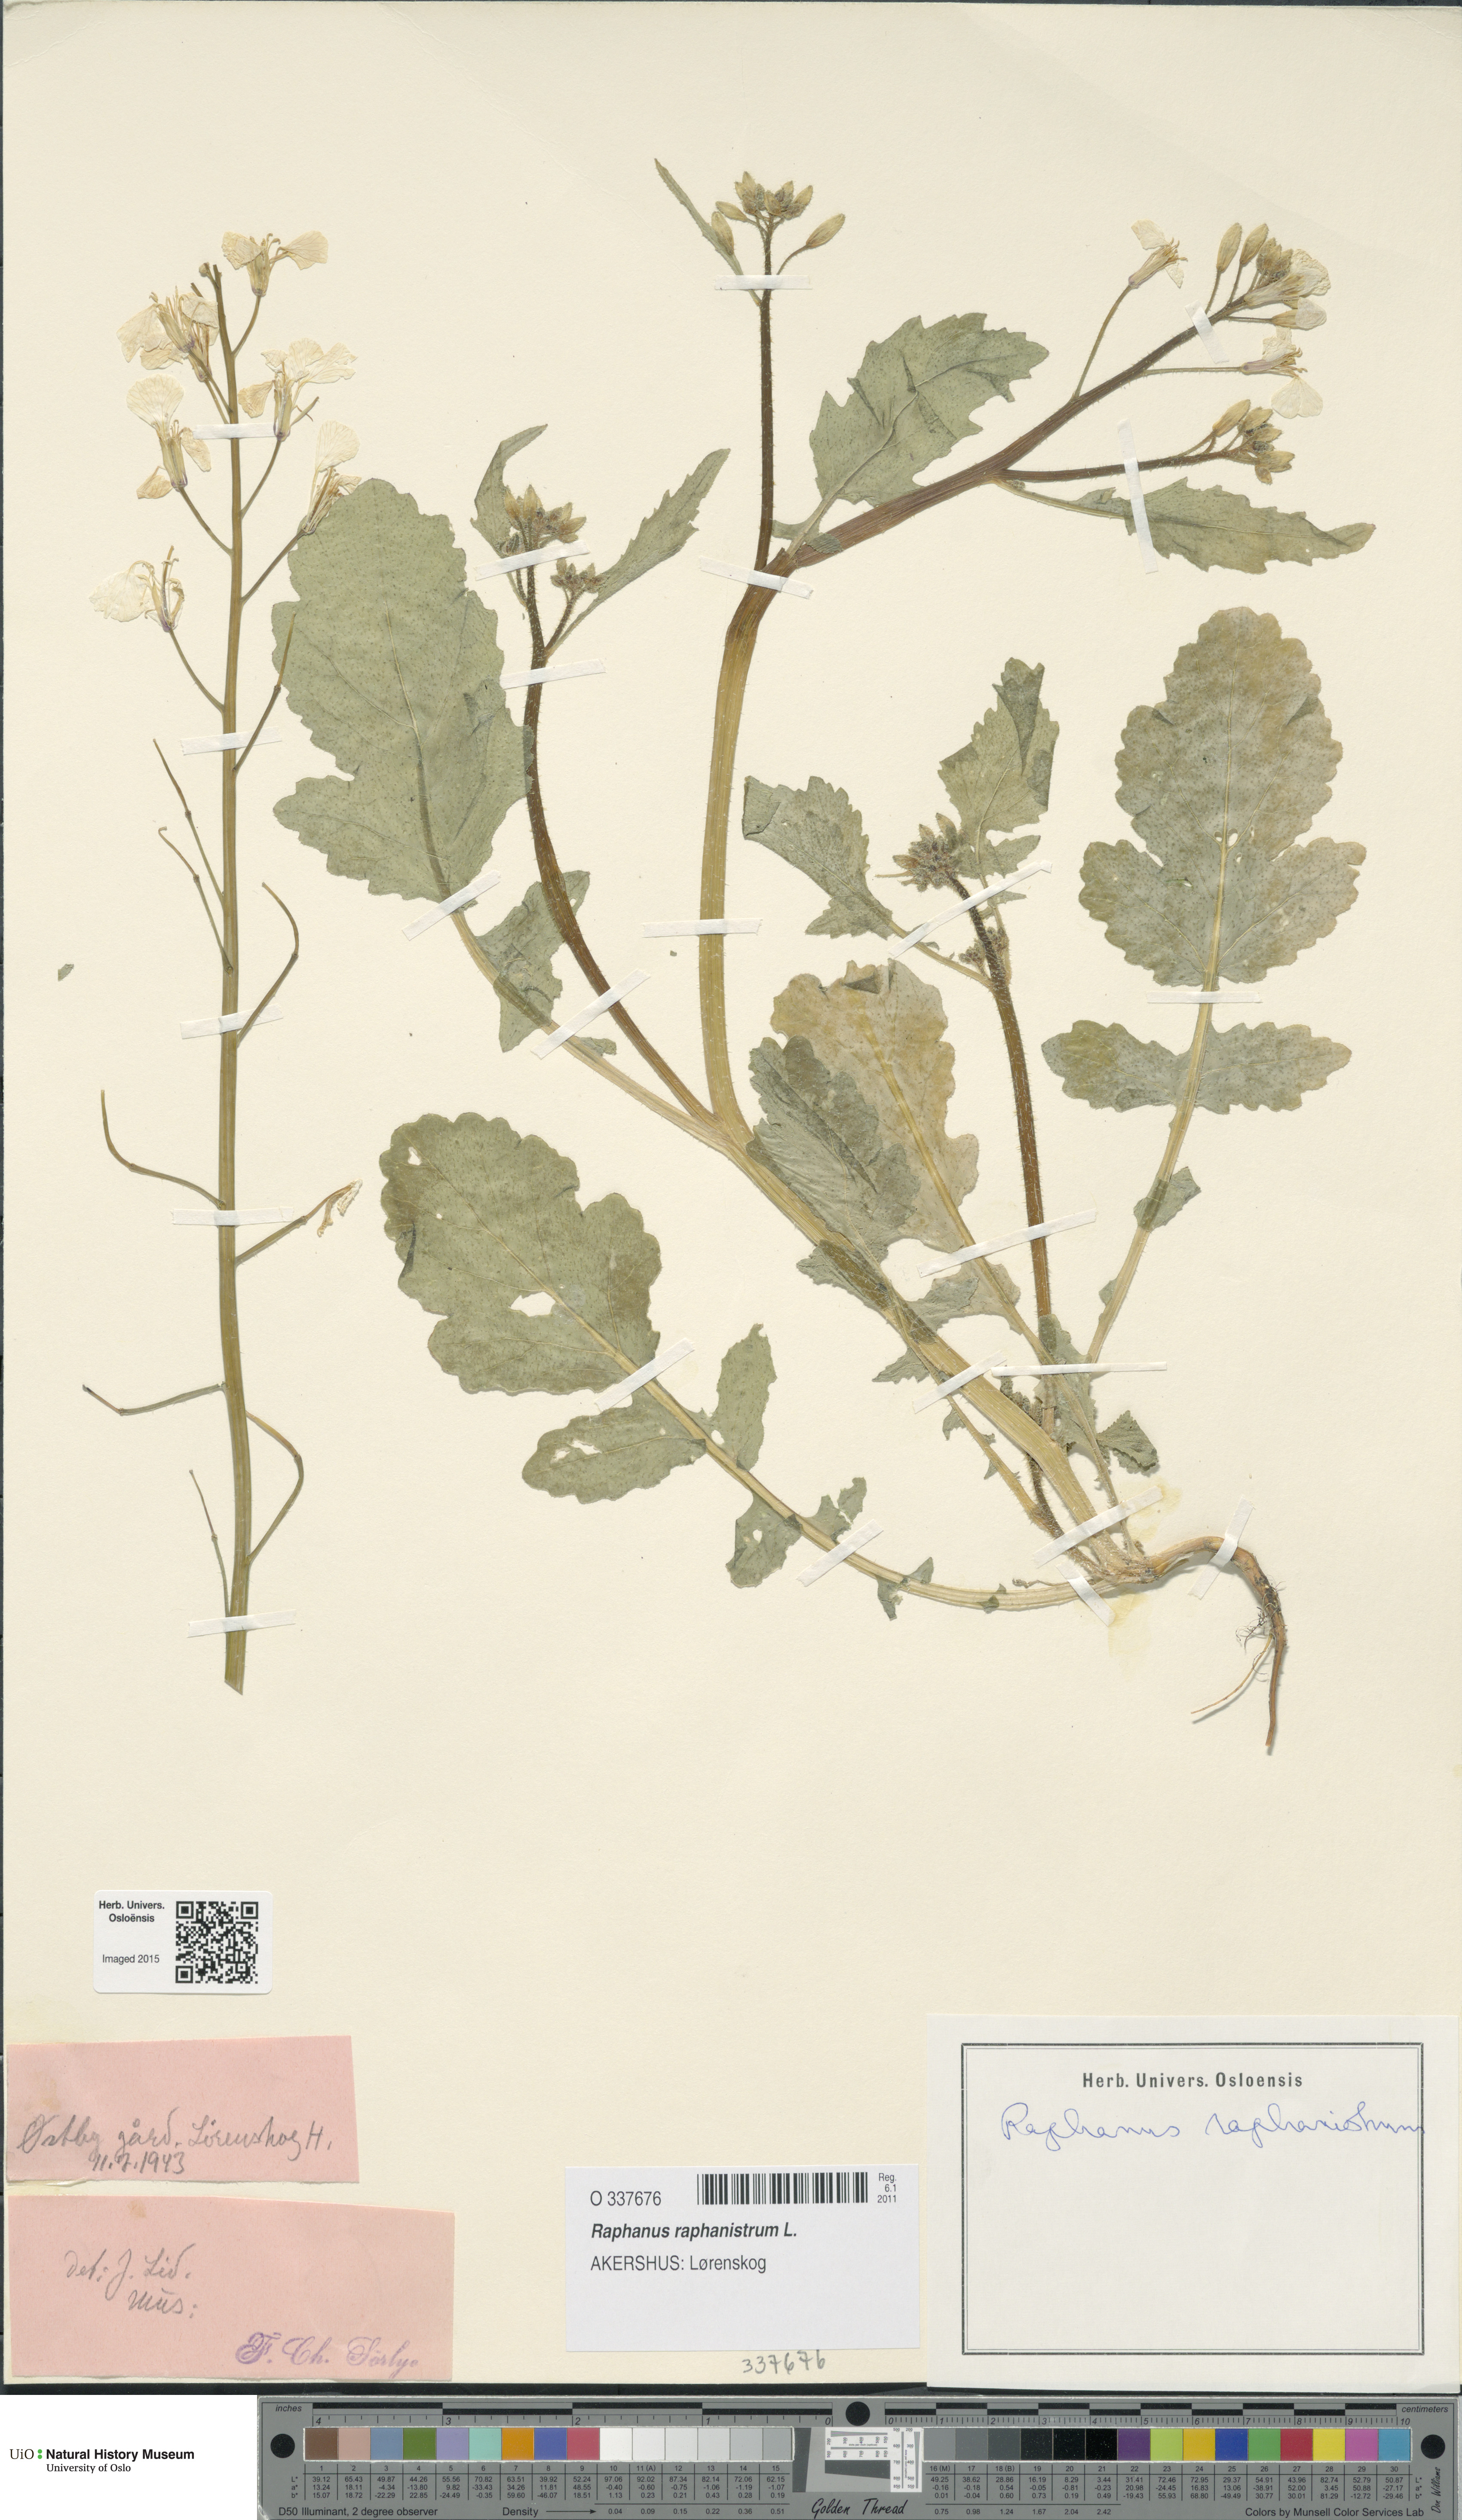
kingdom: Plantae
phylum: Tracheophyta
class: Magnoliopsida
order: Brassicales
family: Brassicaceae
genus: Raphanus
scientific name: Raphanus raphanistrum
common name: Wild radish
